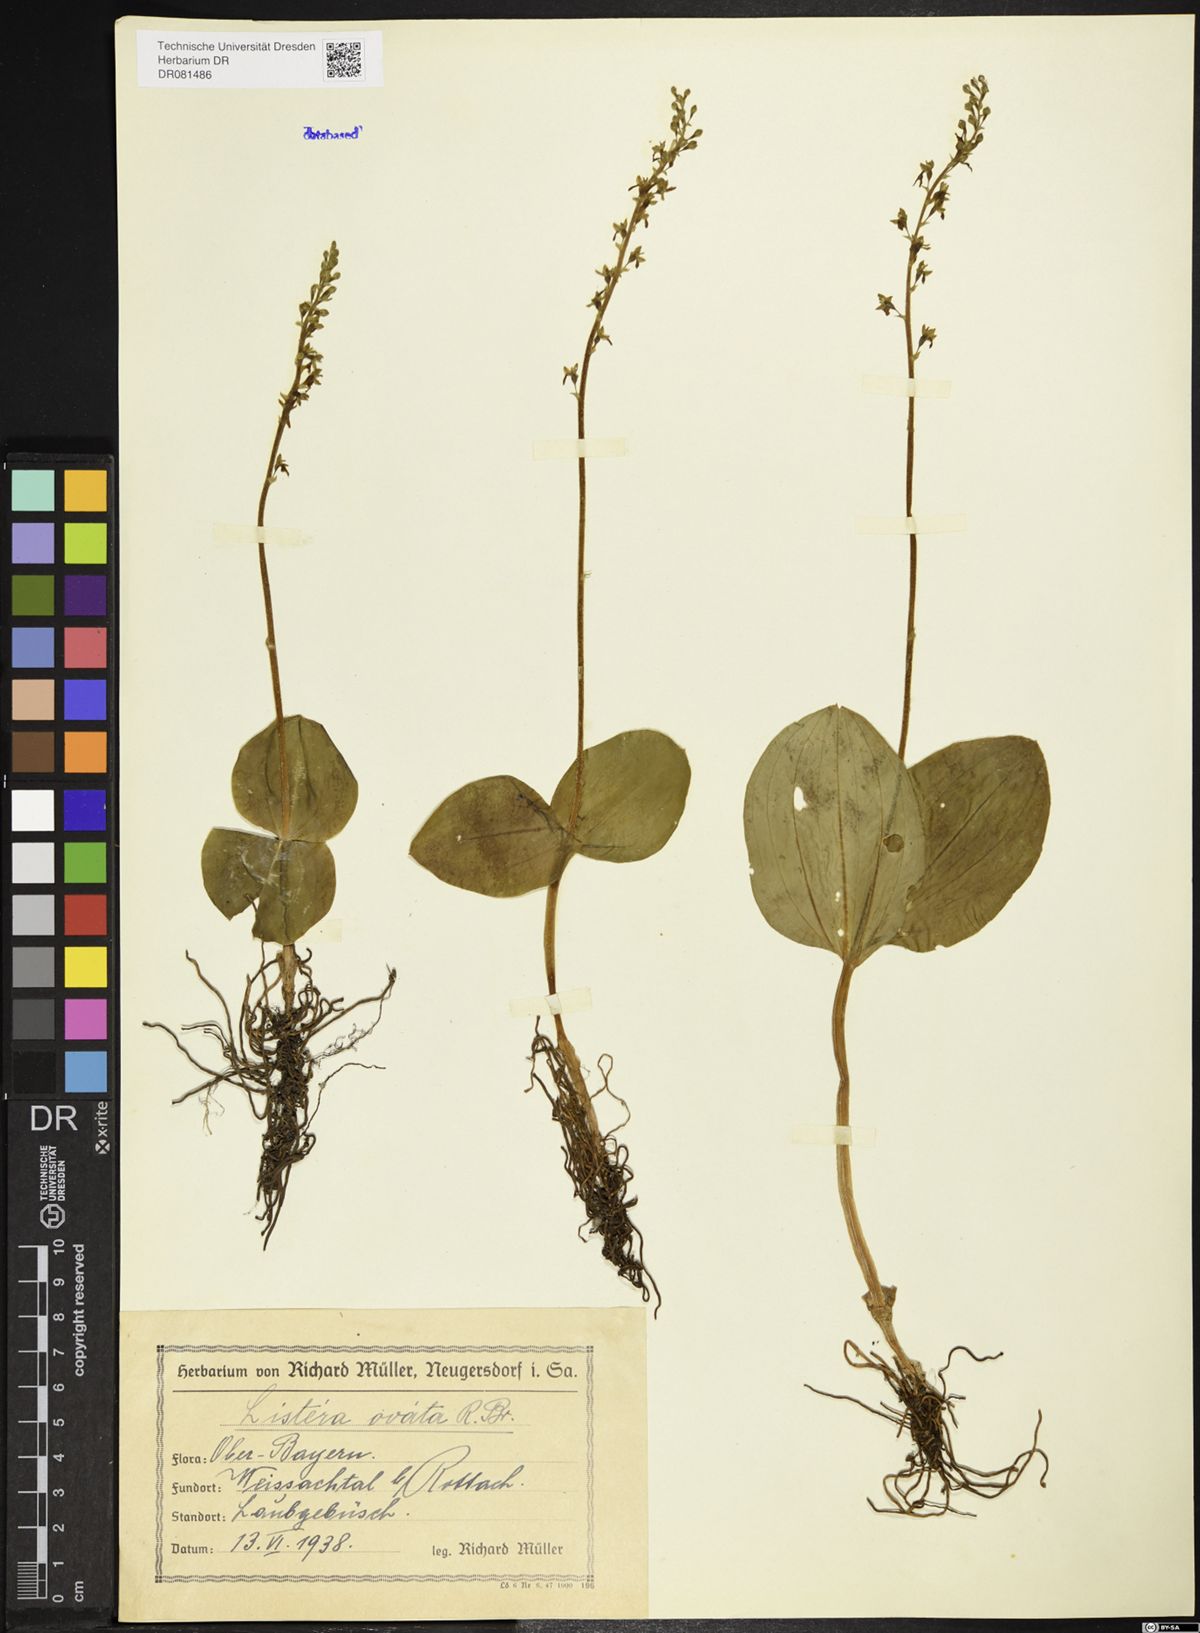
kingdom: Plantae
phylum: Tracheophyta
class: Liliopsida
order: Asparagales
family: Orchidaceae
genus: Neottia
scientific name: Neottia ovata
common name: Common twayblade
